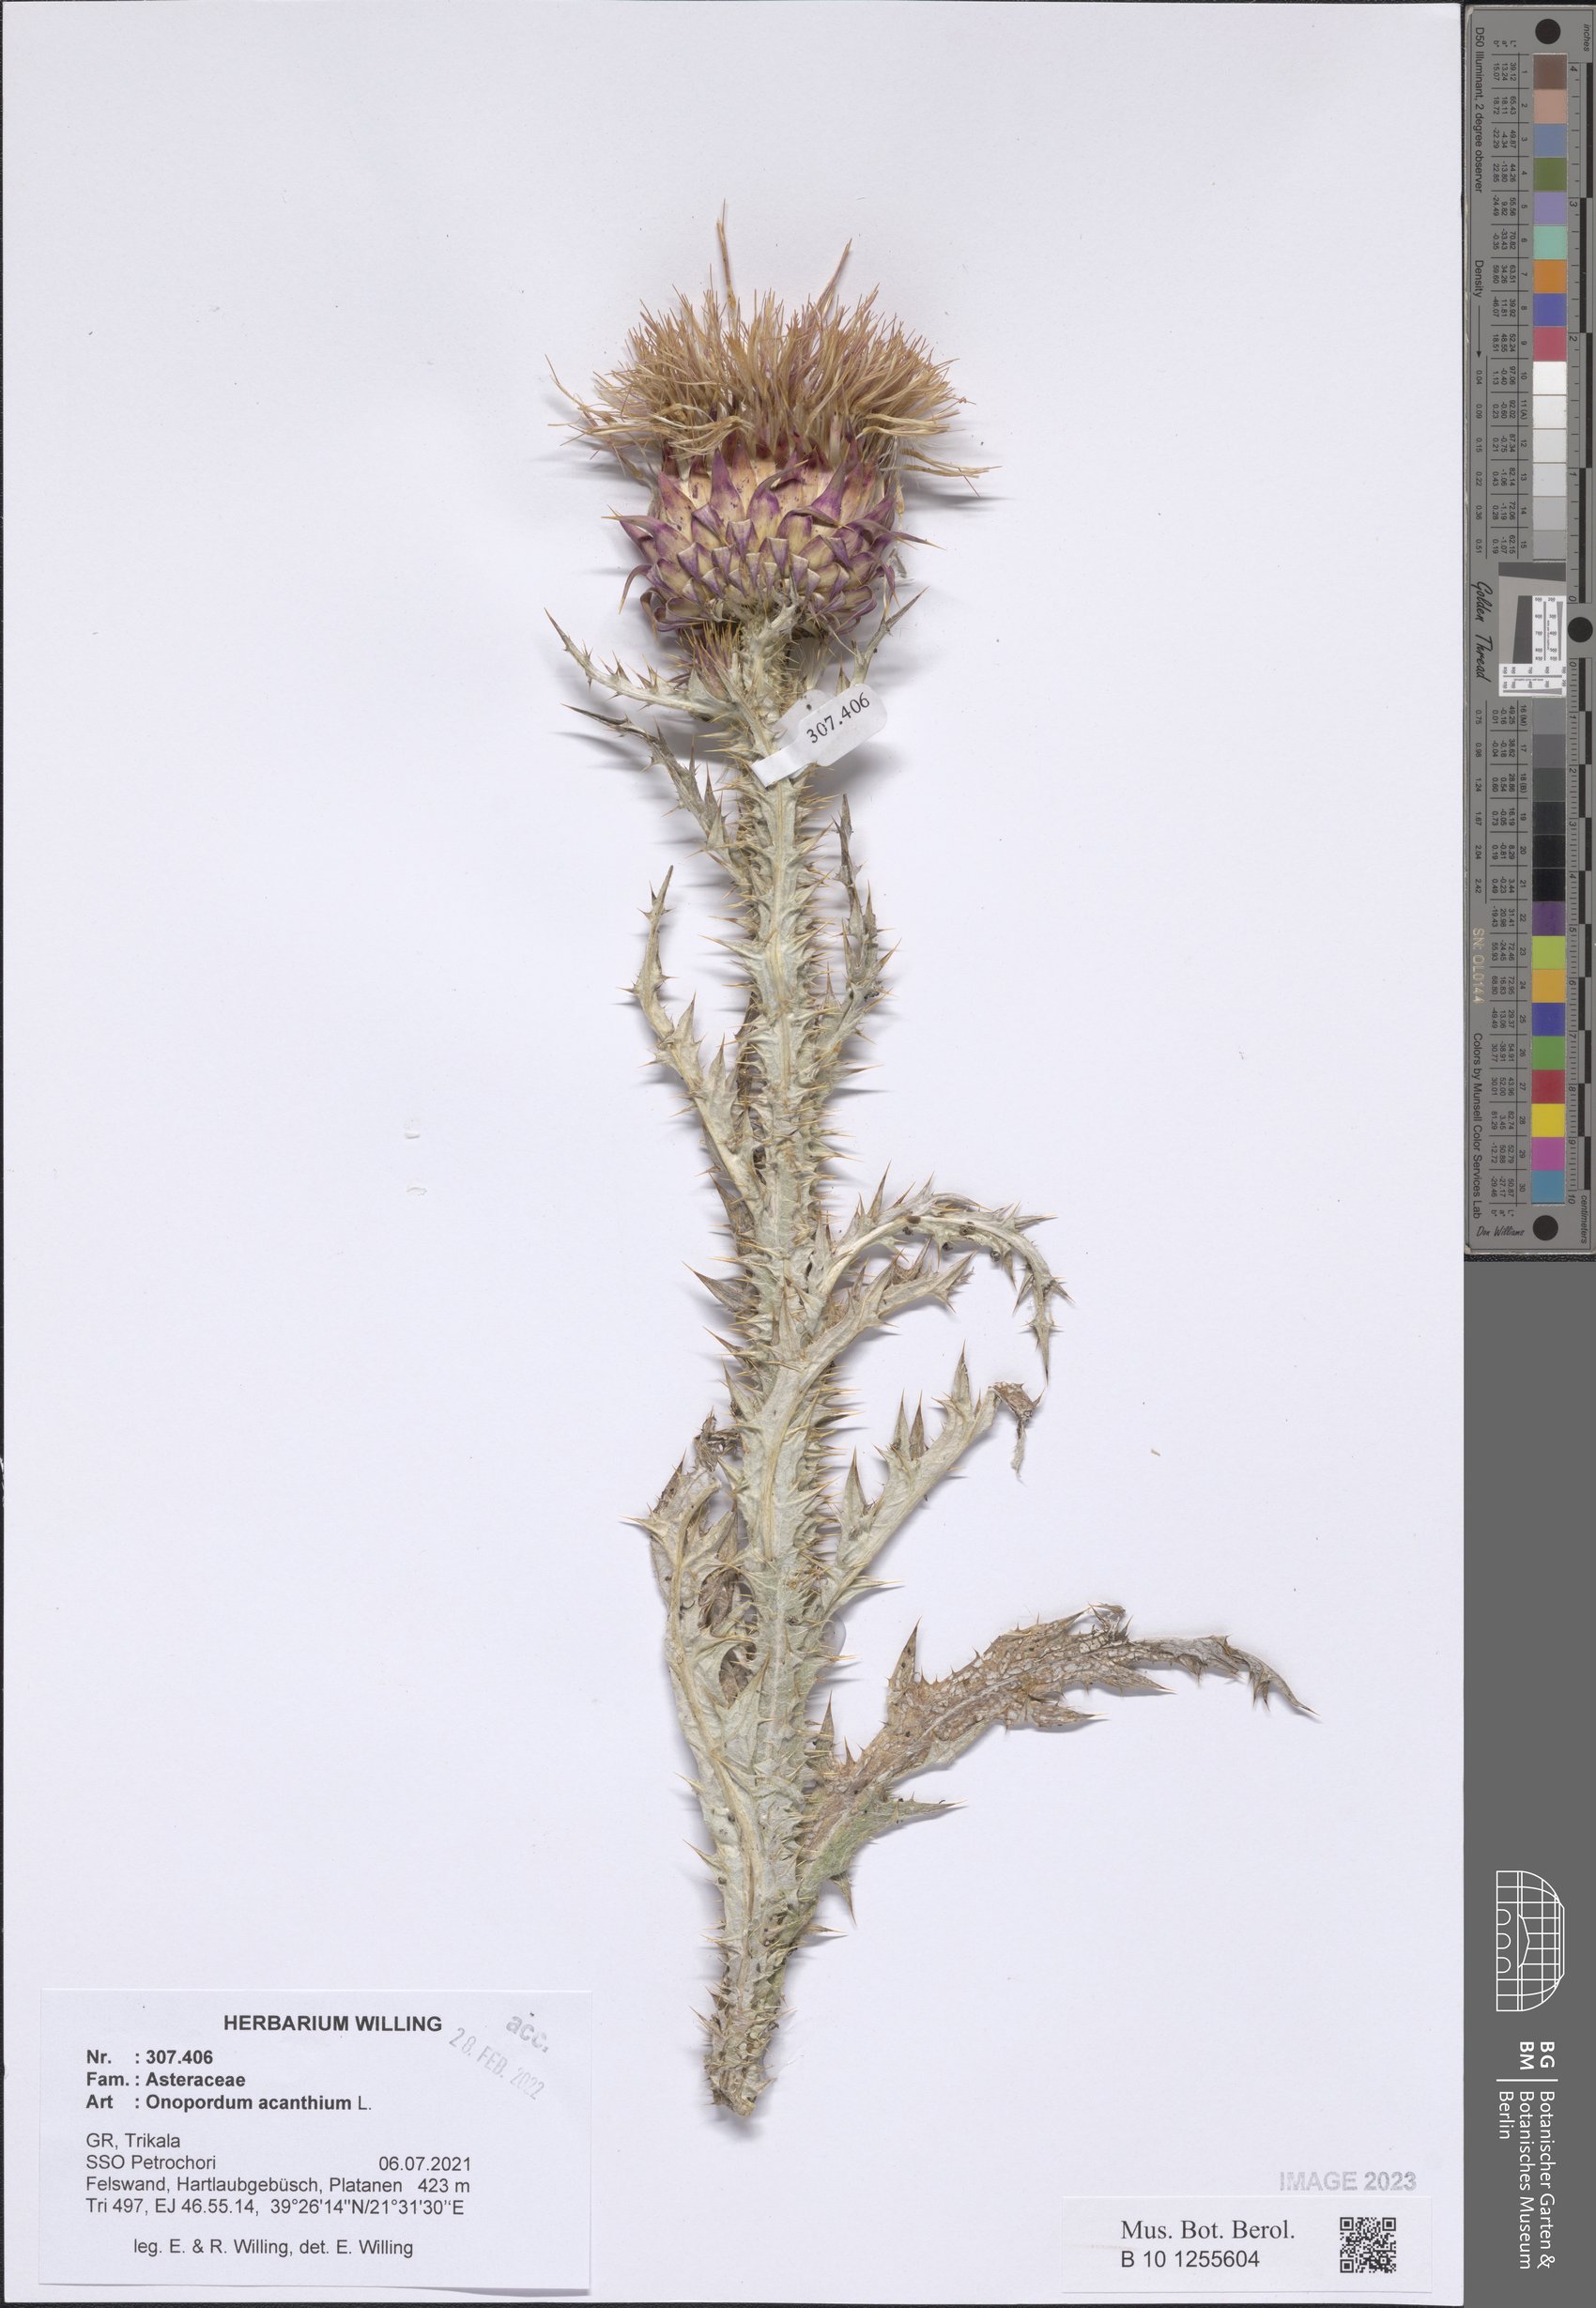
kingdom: Plantae
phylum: Tracheophyta
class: Magnoliopsida
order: Asterales
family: Asteraceae
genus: Onopordum
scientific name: Onopordum acanthium
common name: Scotch thistle
